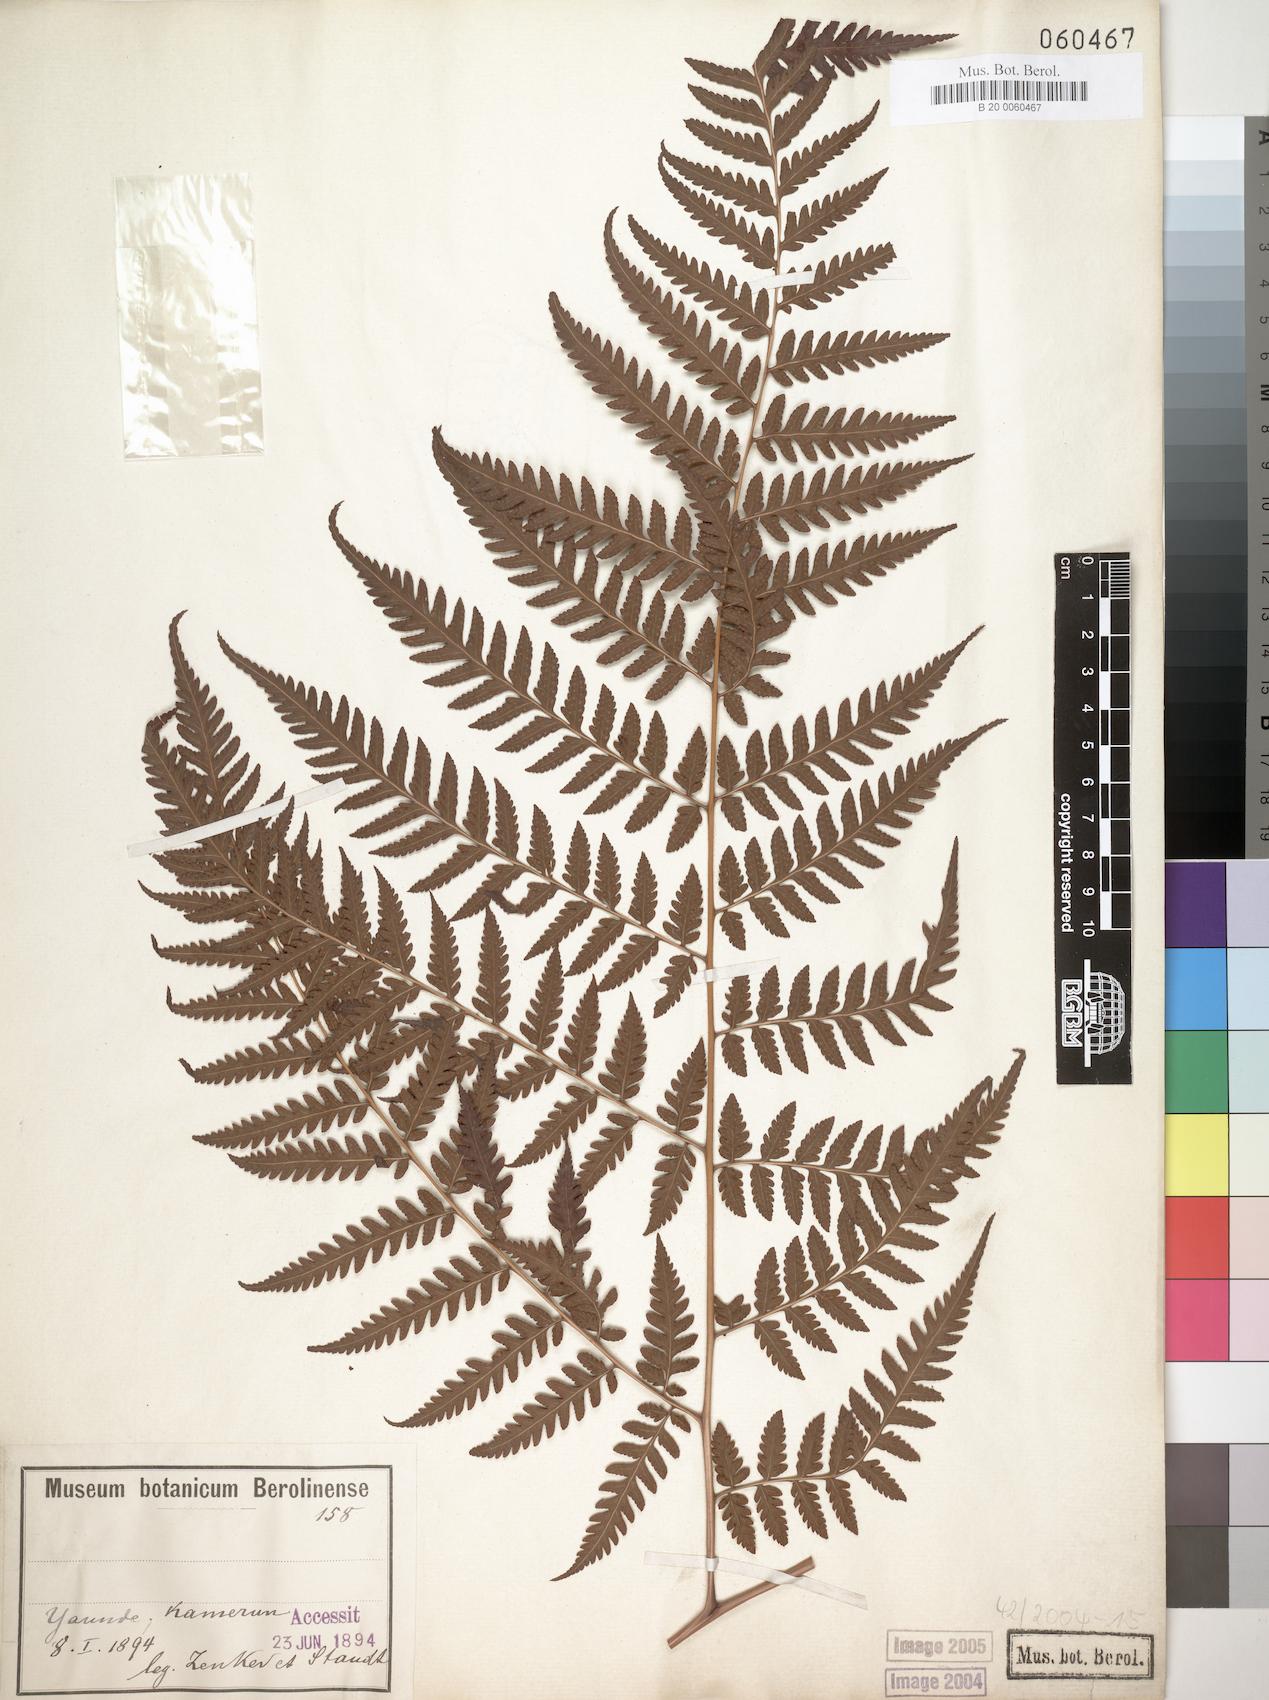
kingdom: Plantae
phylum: Tracheophyta
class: Polypodiopsida
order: Polypodiales
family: Dryopteridaceae
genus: Parapolystichum
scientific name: Parapolystichum nigritianum
